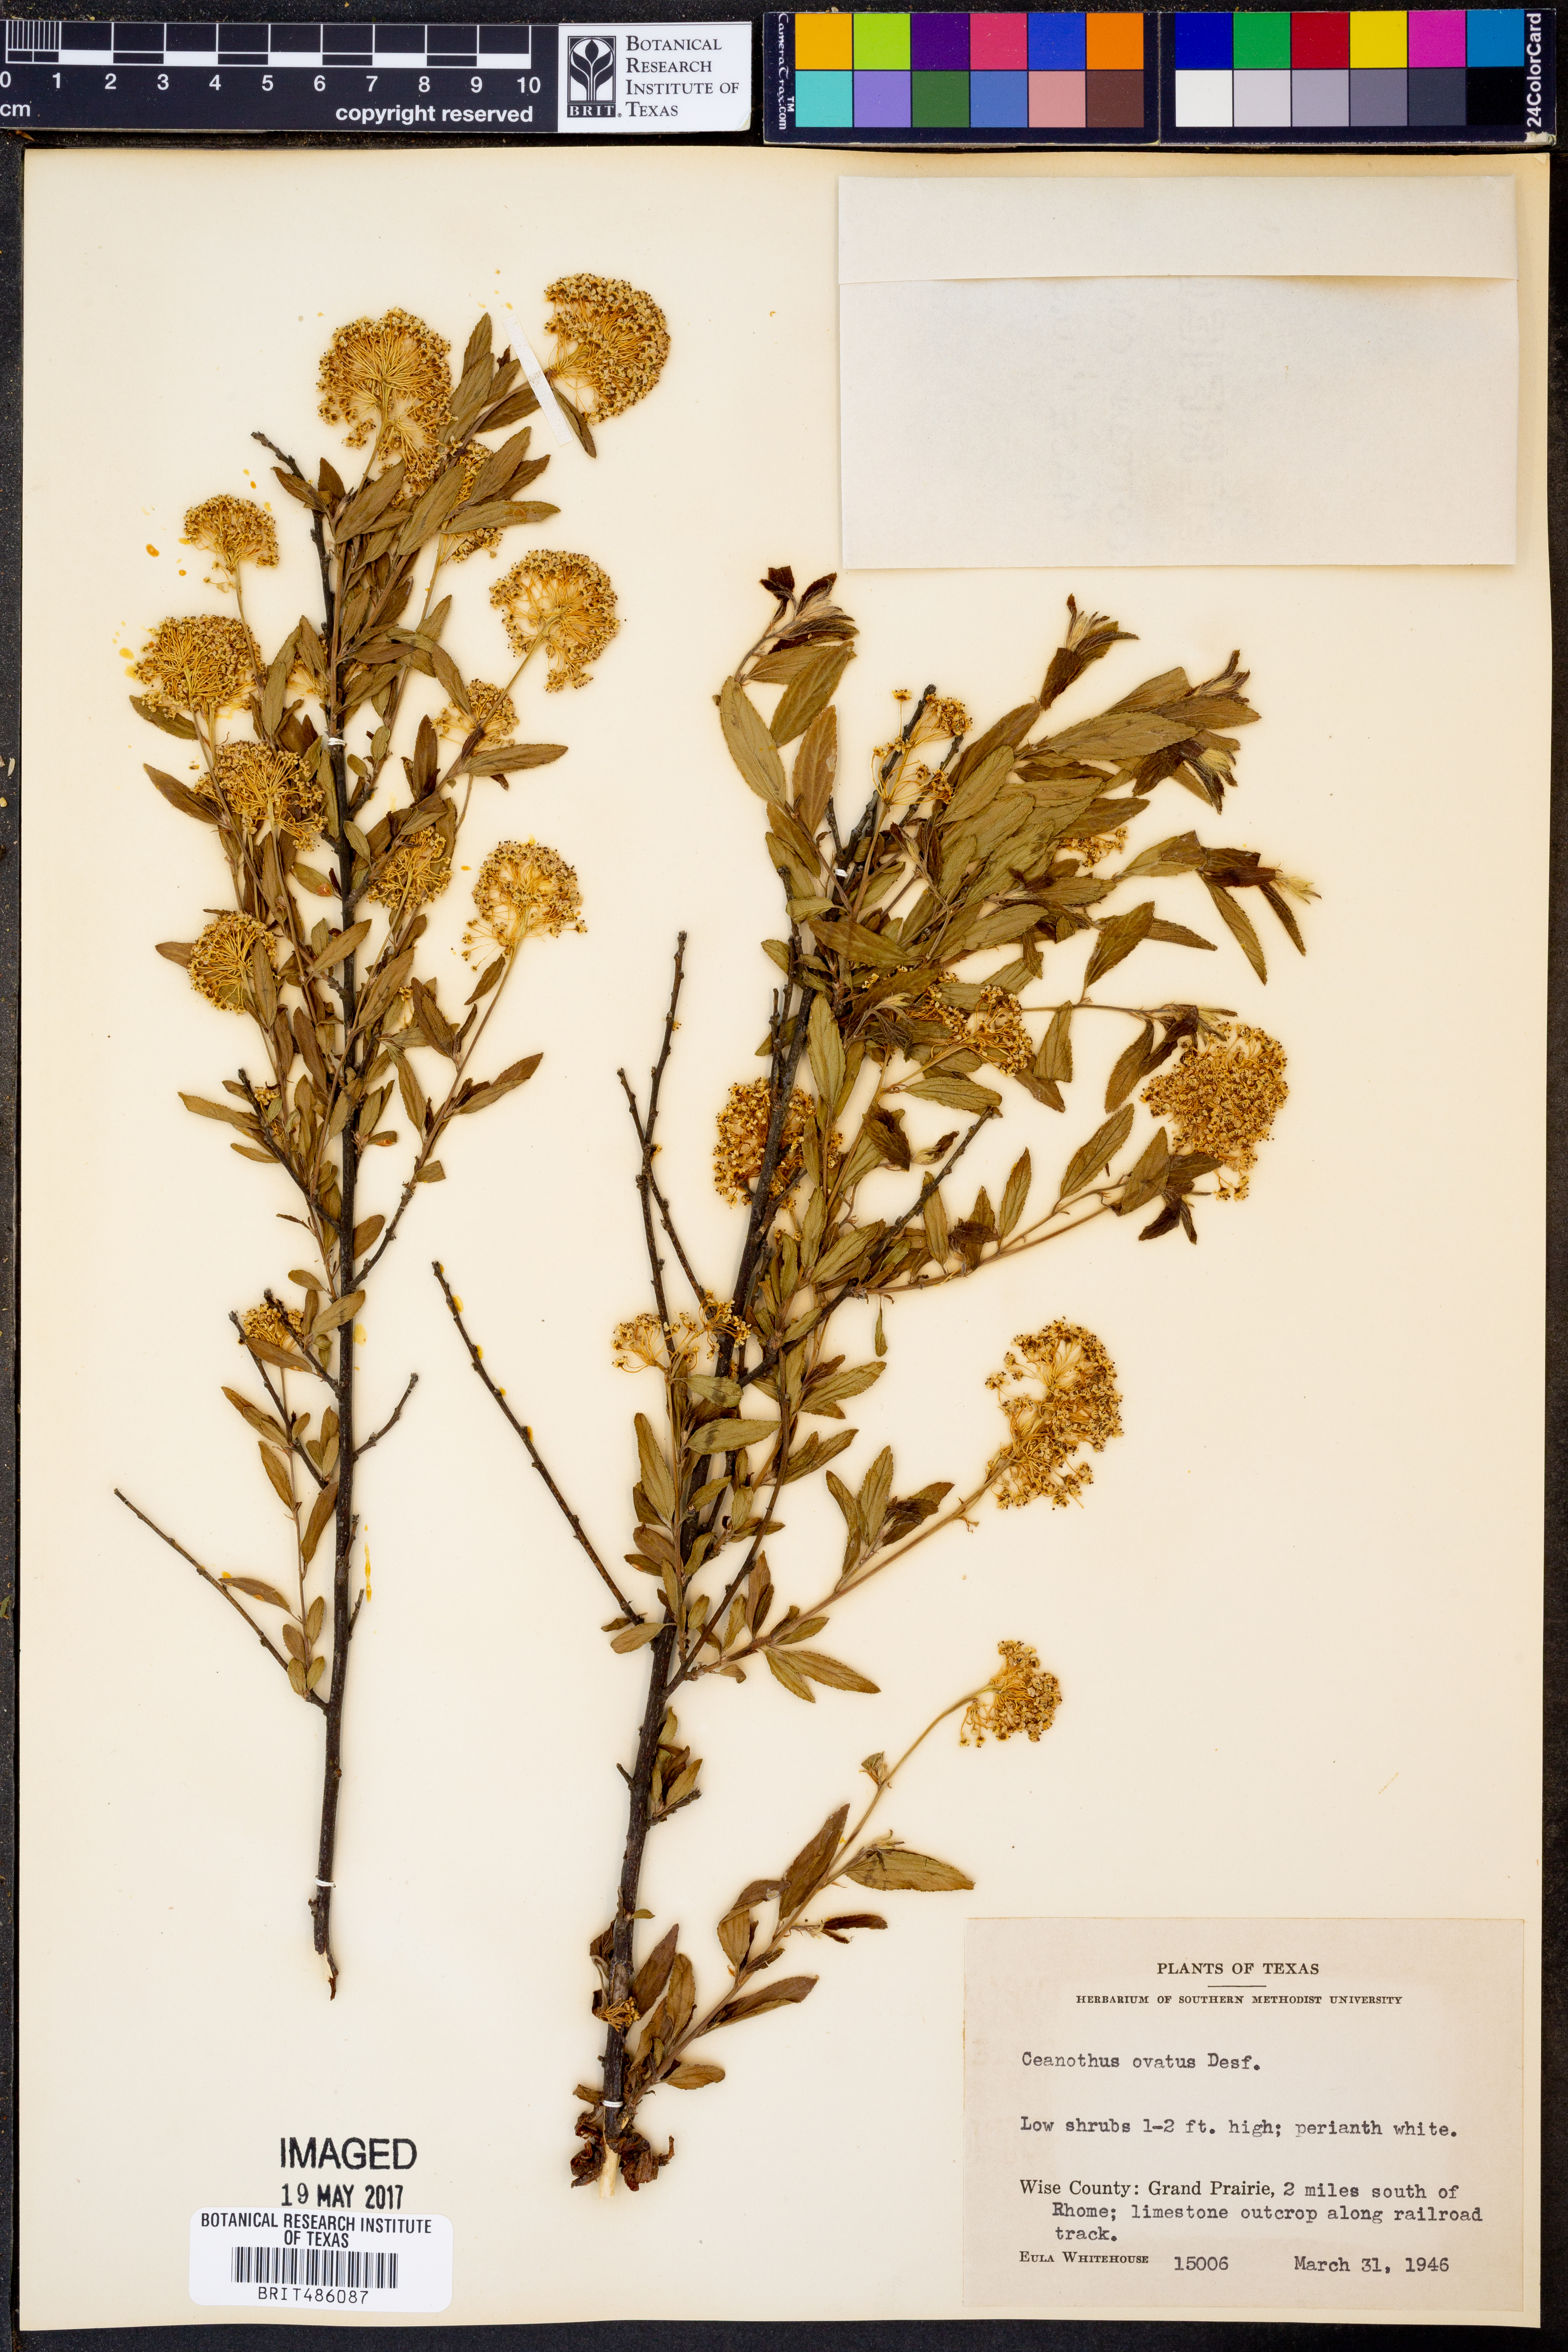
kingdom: Plantae
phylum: Tracheophyta
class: Magnoliopsida
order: Rosales
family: Rhamnaceae
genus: Ceanothus
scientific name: Ceanothus herbaceus
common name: Inland ceanothus
